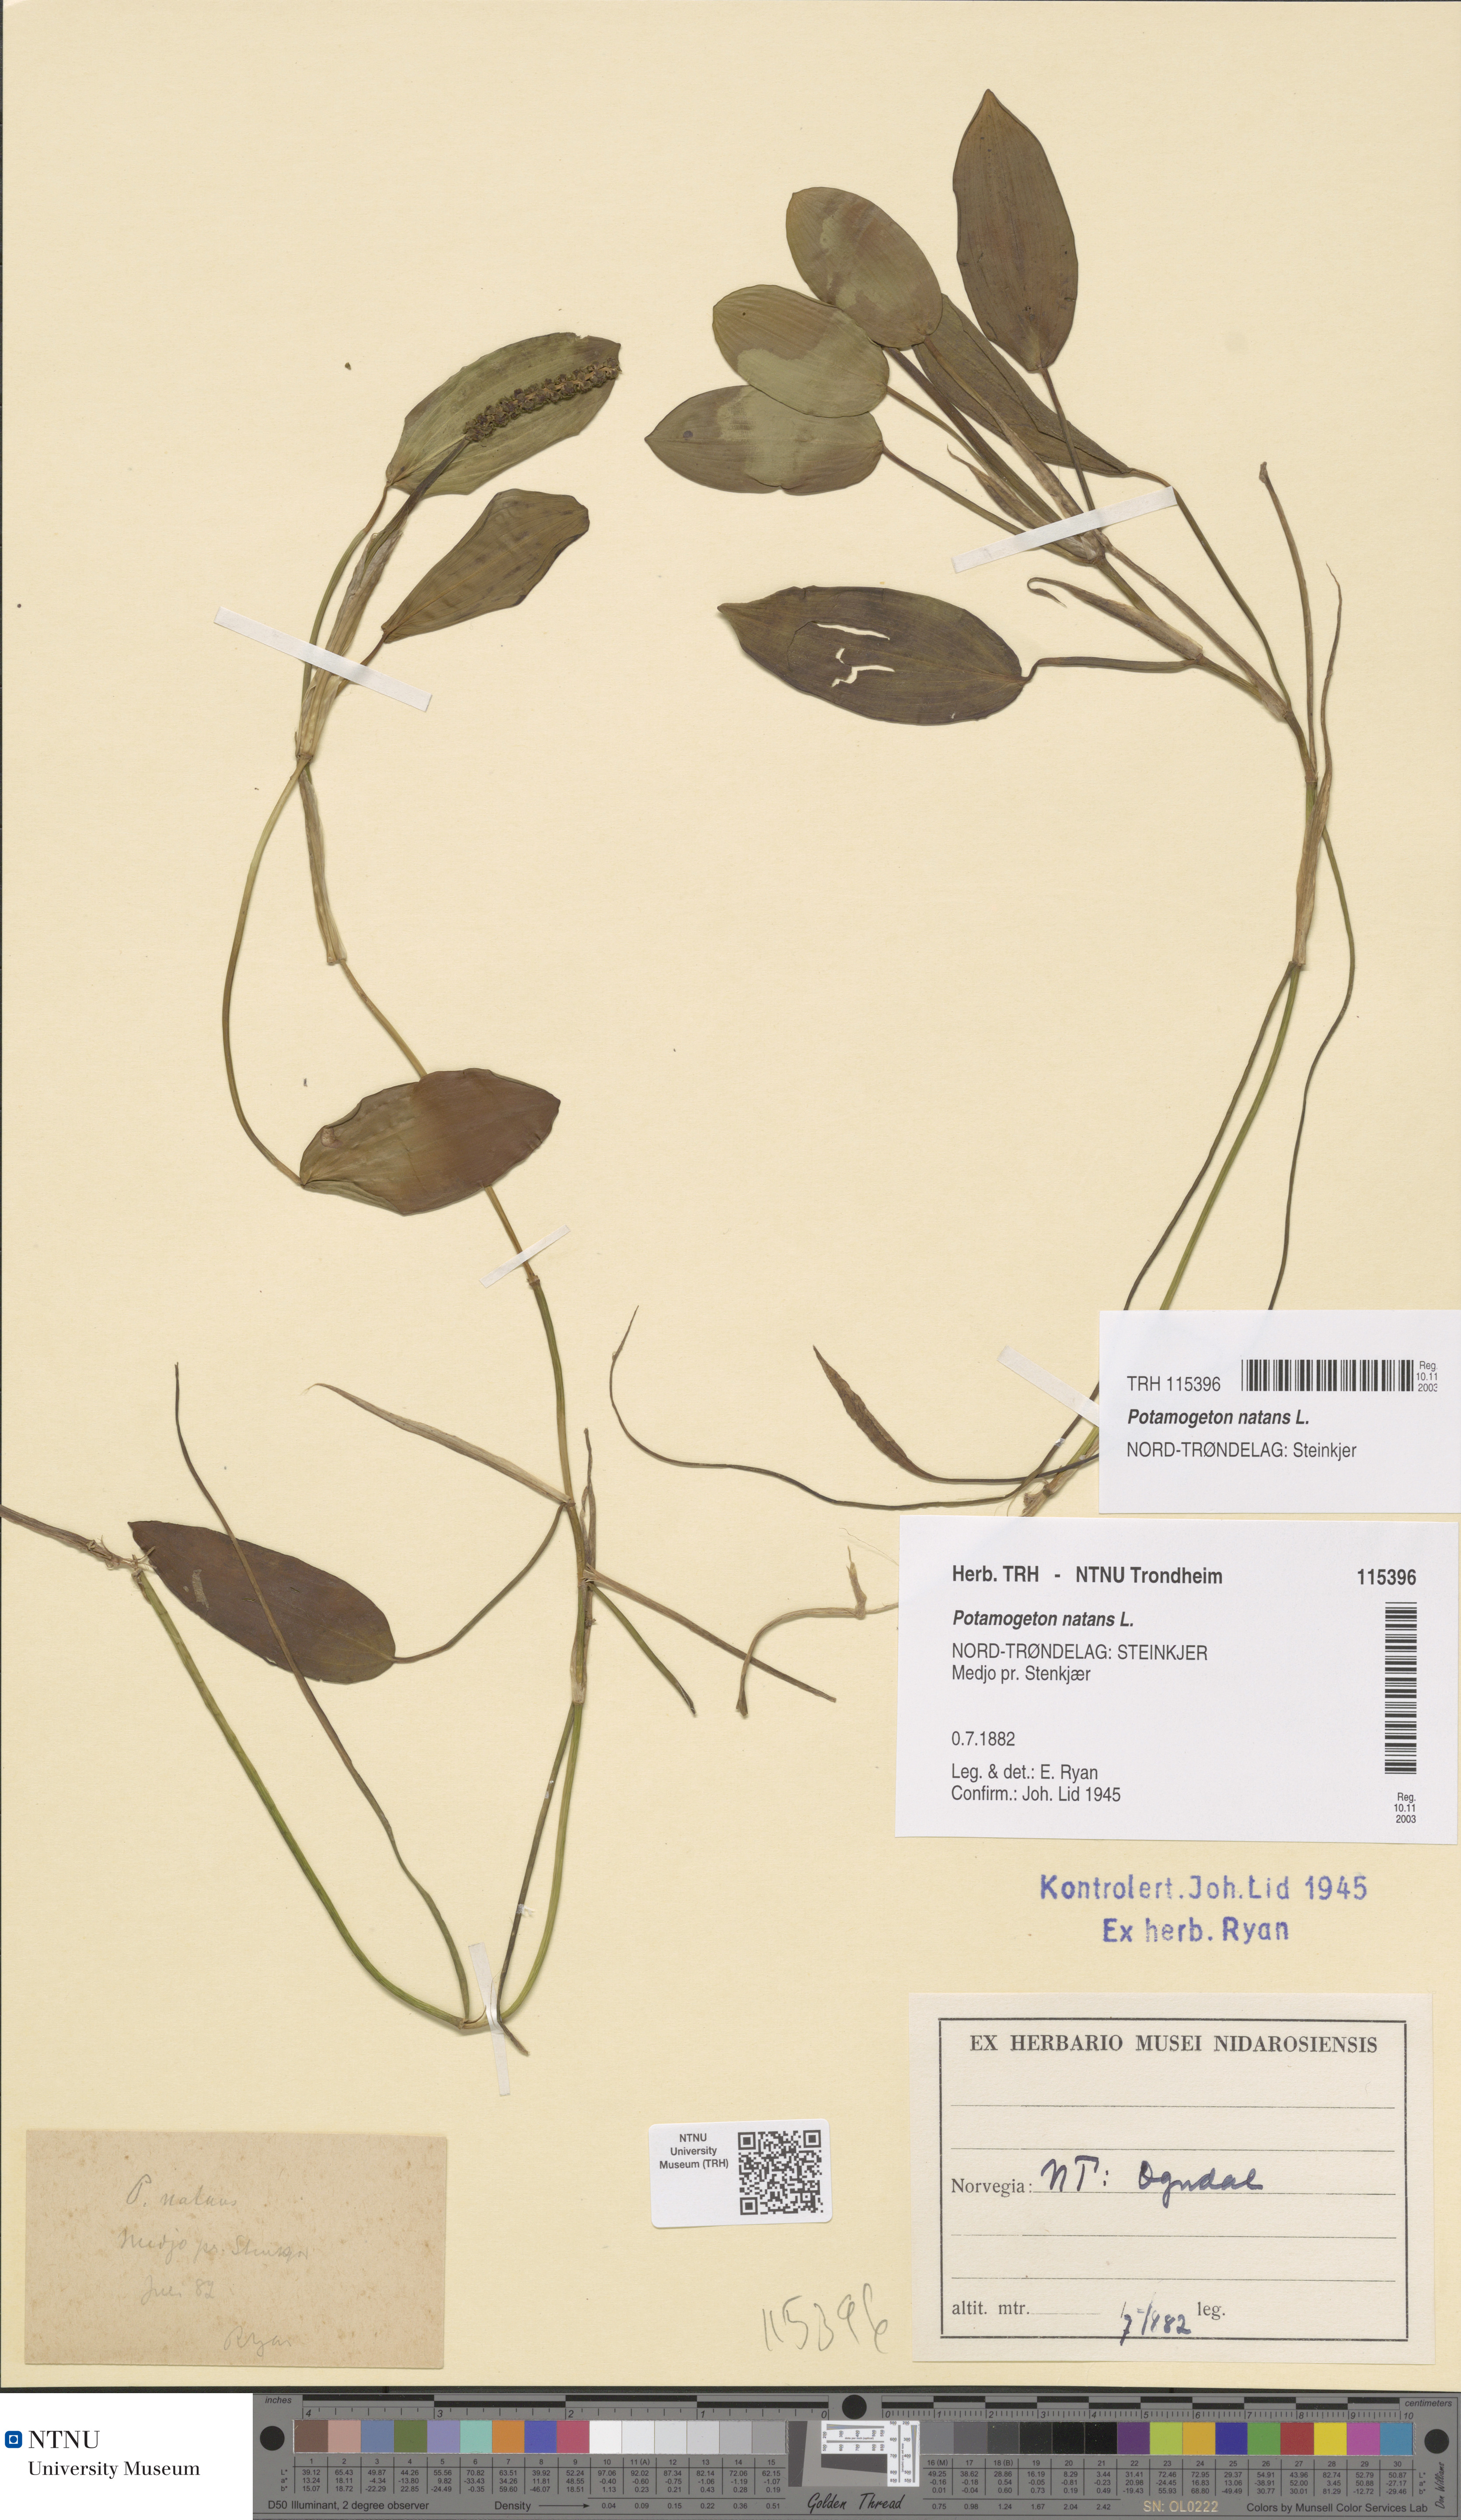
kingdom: Plantae
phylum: Tracheophyta
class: Liliopsida
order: Alismatales
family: Potamogetonaceae
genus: Potamogeton
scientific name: Potamogeton natans
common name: Broad-leaved pondweed
